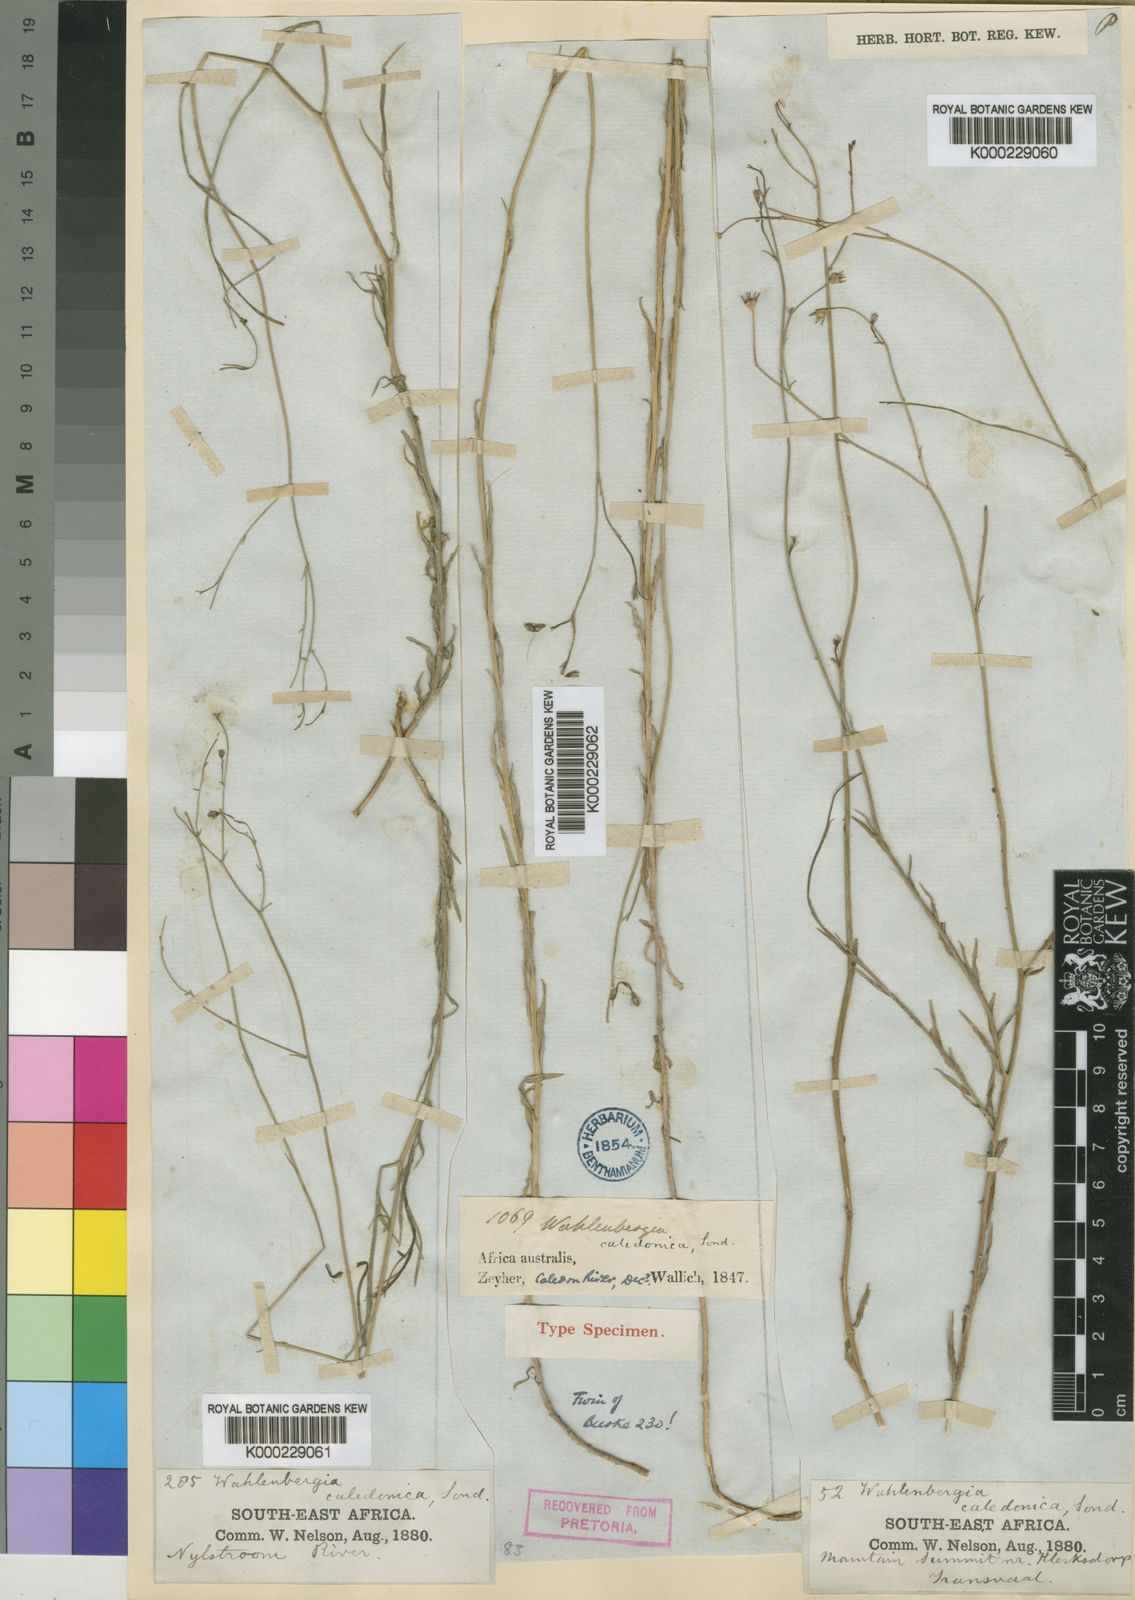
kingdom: Plantae
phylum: Tracheophyta
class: Magnoliopsida
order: Asterales
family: Campanulaceae
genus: Wahlenbergia
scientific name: Wahlenbergia undulata
